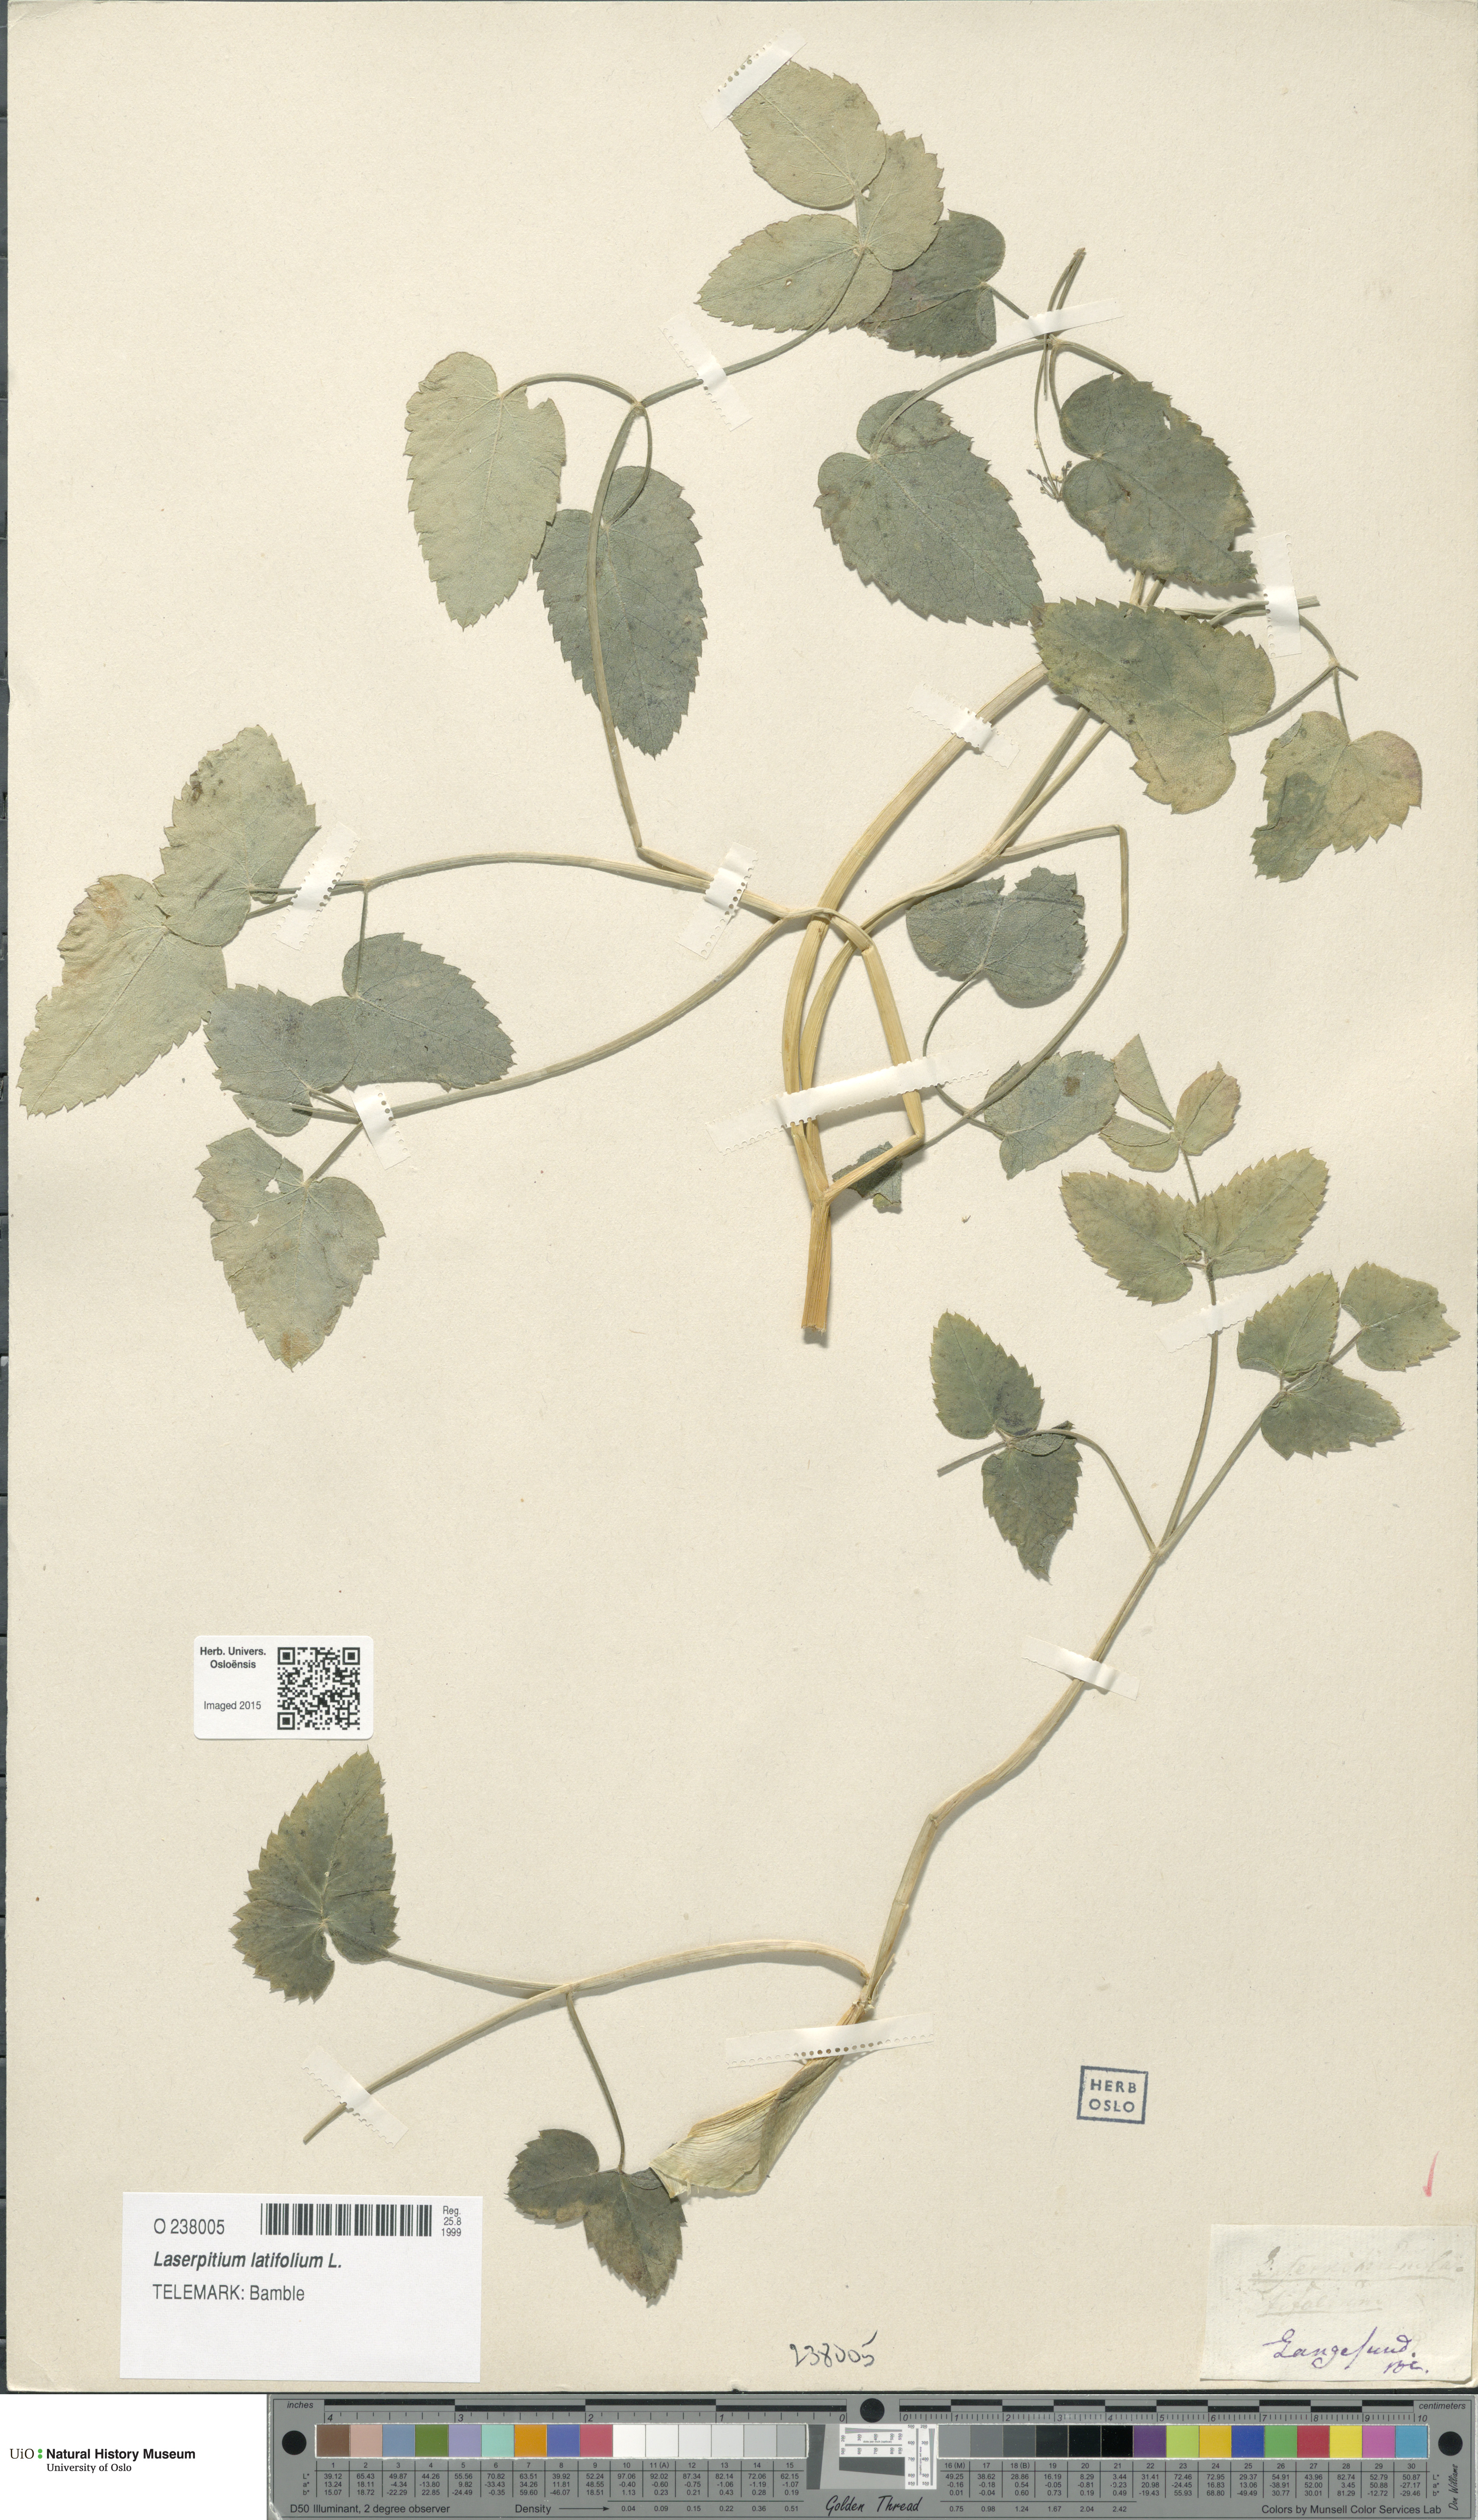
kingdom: Plantae
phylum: Tracheophyta
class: Magnoliopsida
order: Apiales
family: Apiaceae
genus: Laserpitium
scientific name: Laserpitium latifolium
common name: Broadleaf sermountain
